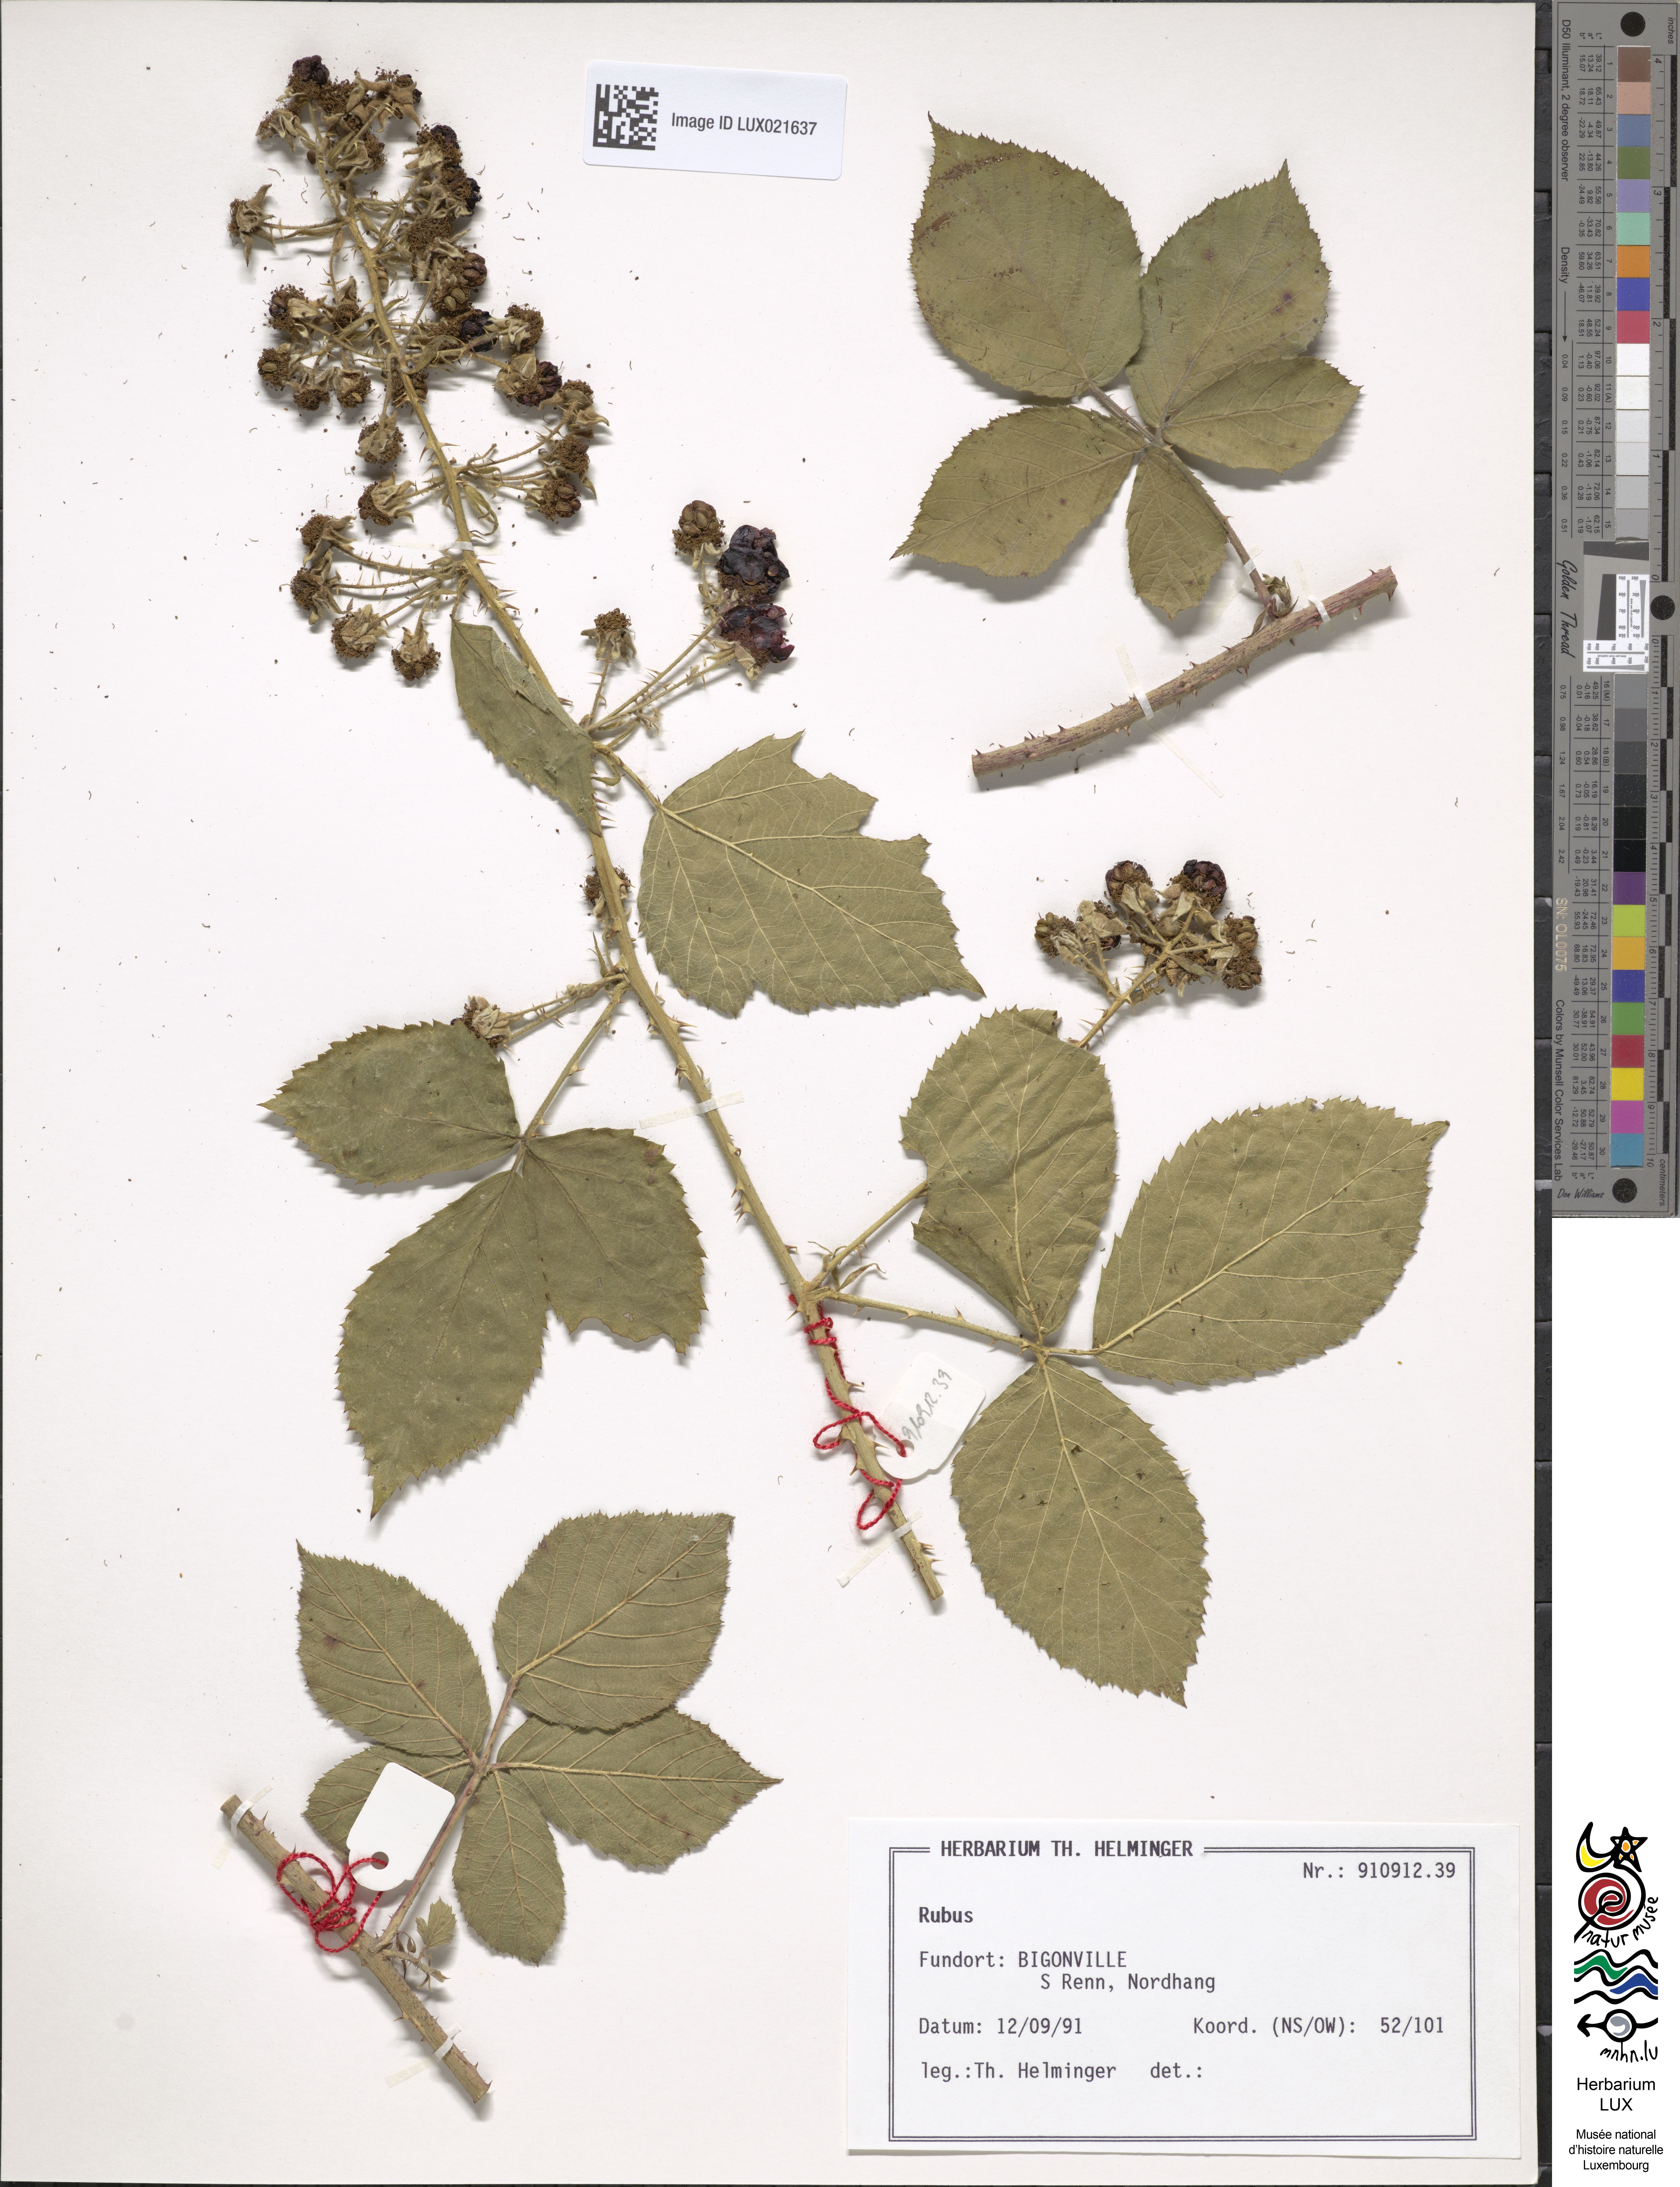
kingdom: Plantae
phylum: Tracheophyta
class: Magnoliopsida
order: Rosales
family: Rosaceae
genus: Rubus
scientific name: Rubus
